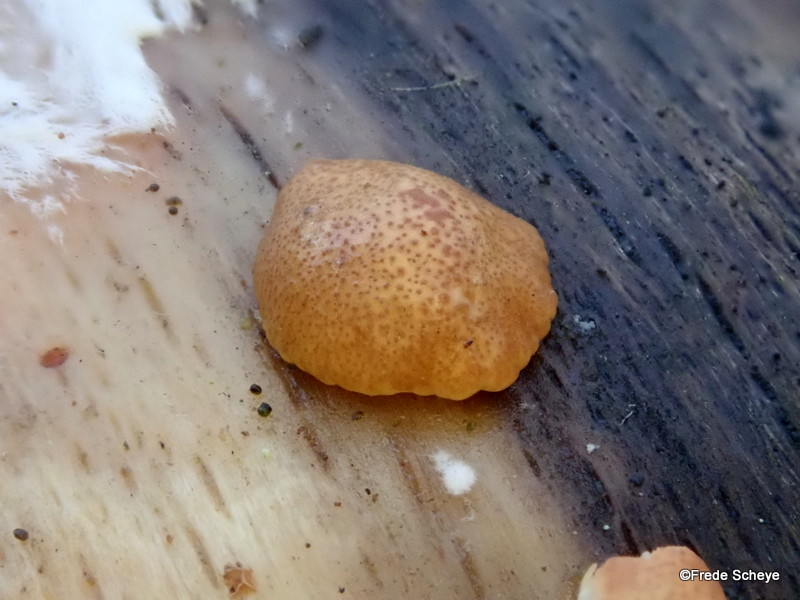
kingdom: Fungi
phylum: Ascomycota
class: Sordariomycetes
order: Hypocreales
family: Hypocreaceae
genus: Trichoderma
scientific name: Trichoderma europaeum
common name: rosabrun kødkerne
